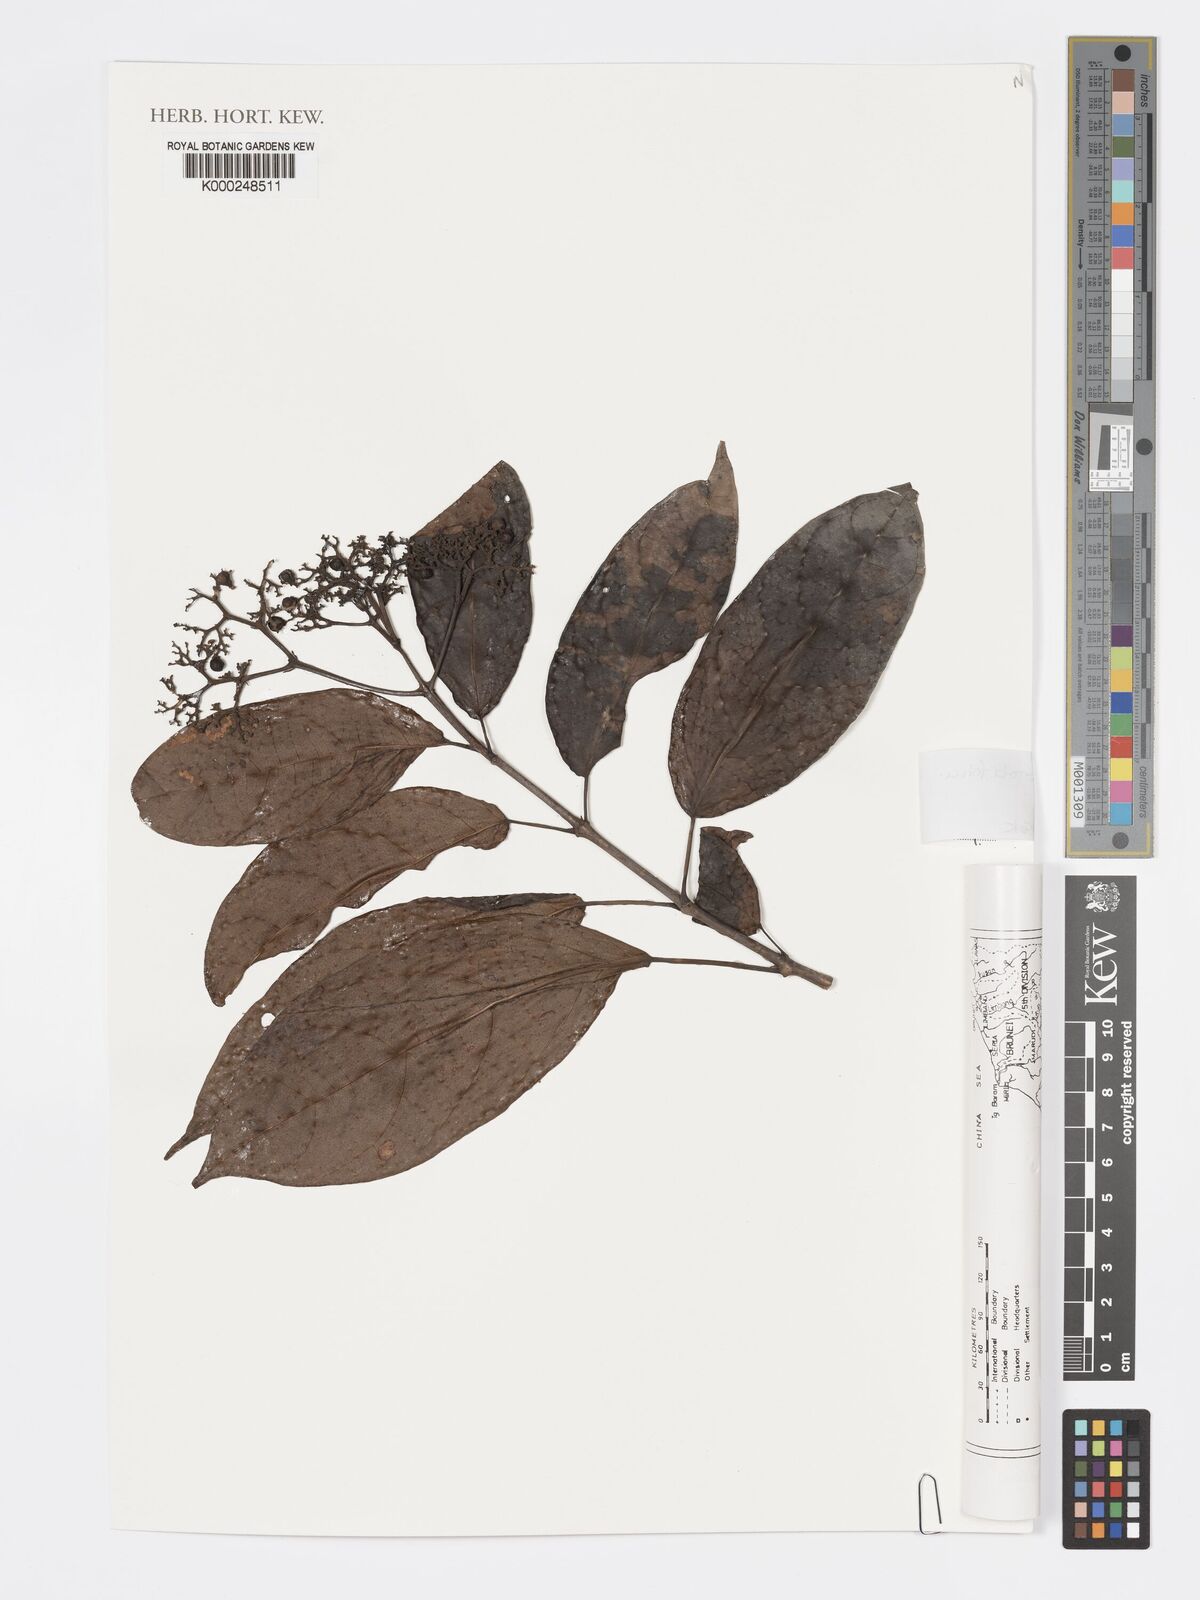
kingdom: Plantae
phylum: Tracheophyta
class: Magnoliopsida
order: Lamiales
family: Lamiaceae
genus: Premna
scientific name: Premna serratifolia
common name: Bastard guelder
